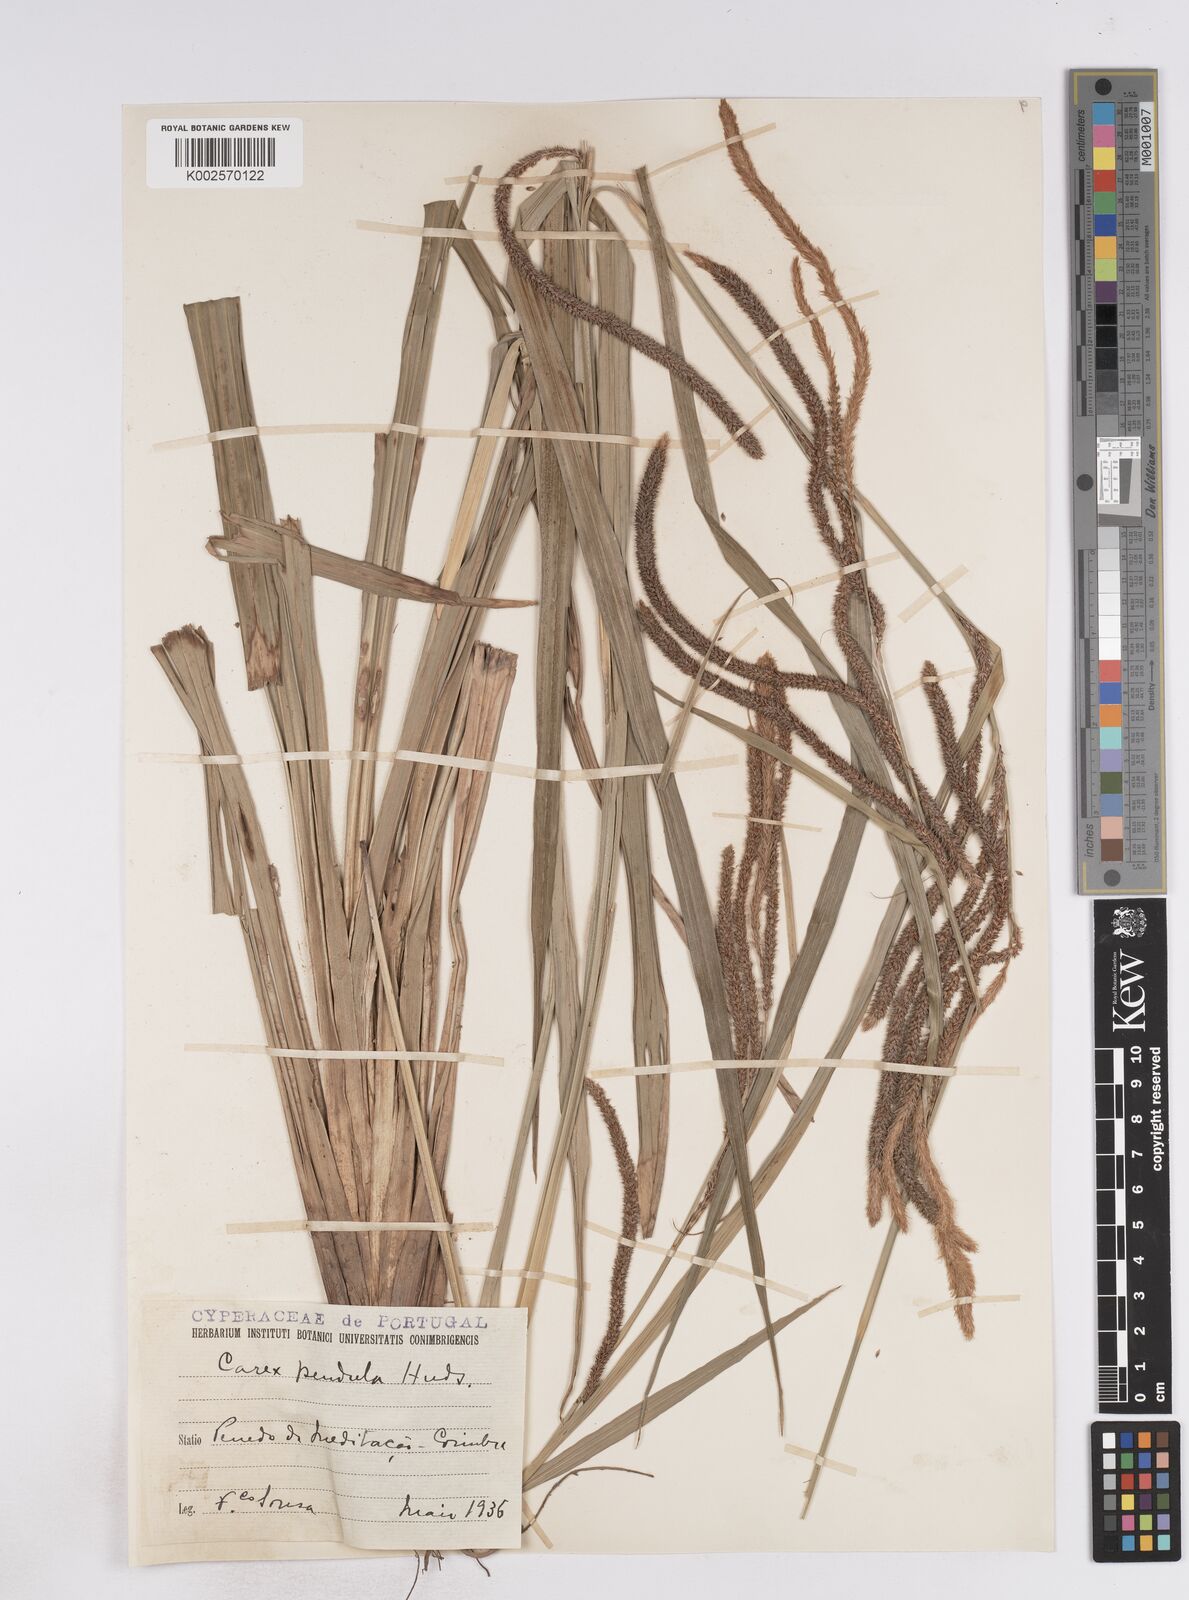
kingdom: Plantae
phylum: Tracheophyta
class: Liliopsida
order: Poales
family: Cyperaceae
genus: Carex
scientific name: Carex pendula
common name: Pendulous sedge
